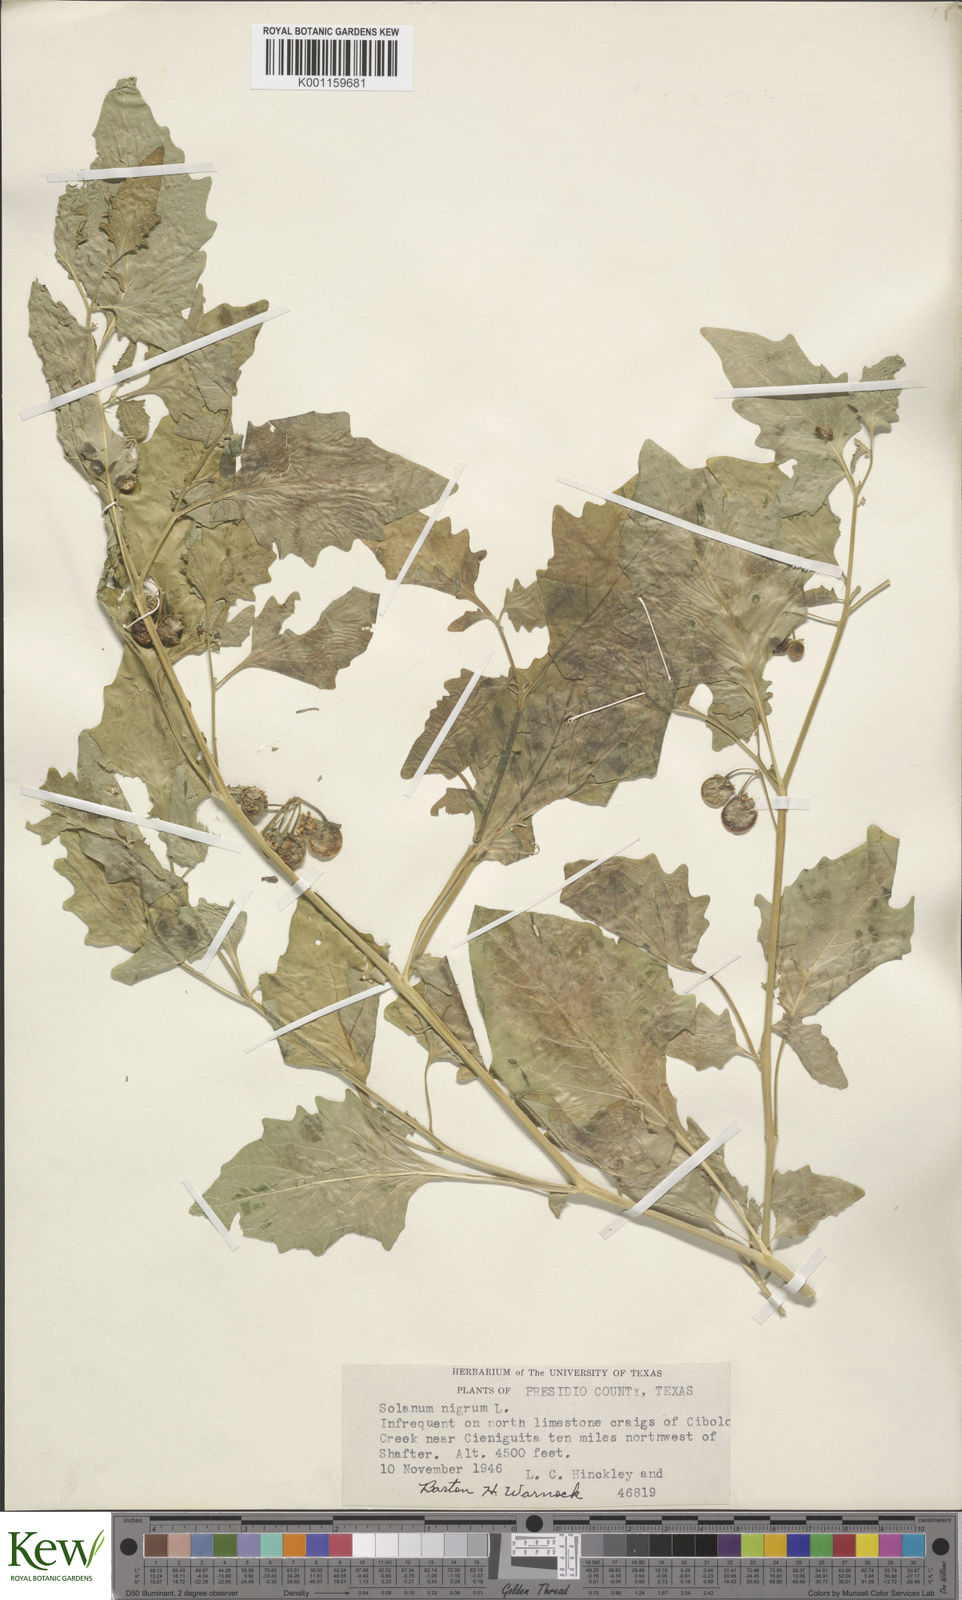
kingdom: Plantae
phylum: Tracheophyta
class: Magnoliopsida
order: Solanales
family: Solanaceae
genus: Solanum
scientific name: Solanum interius
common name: Plains black nightshade
